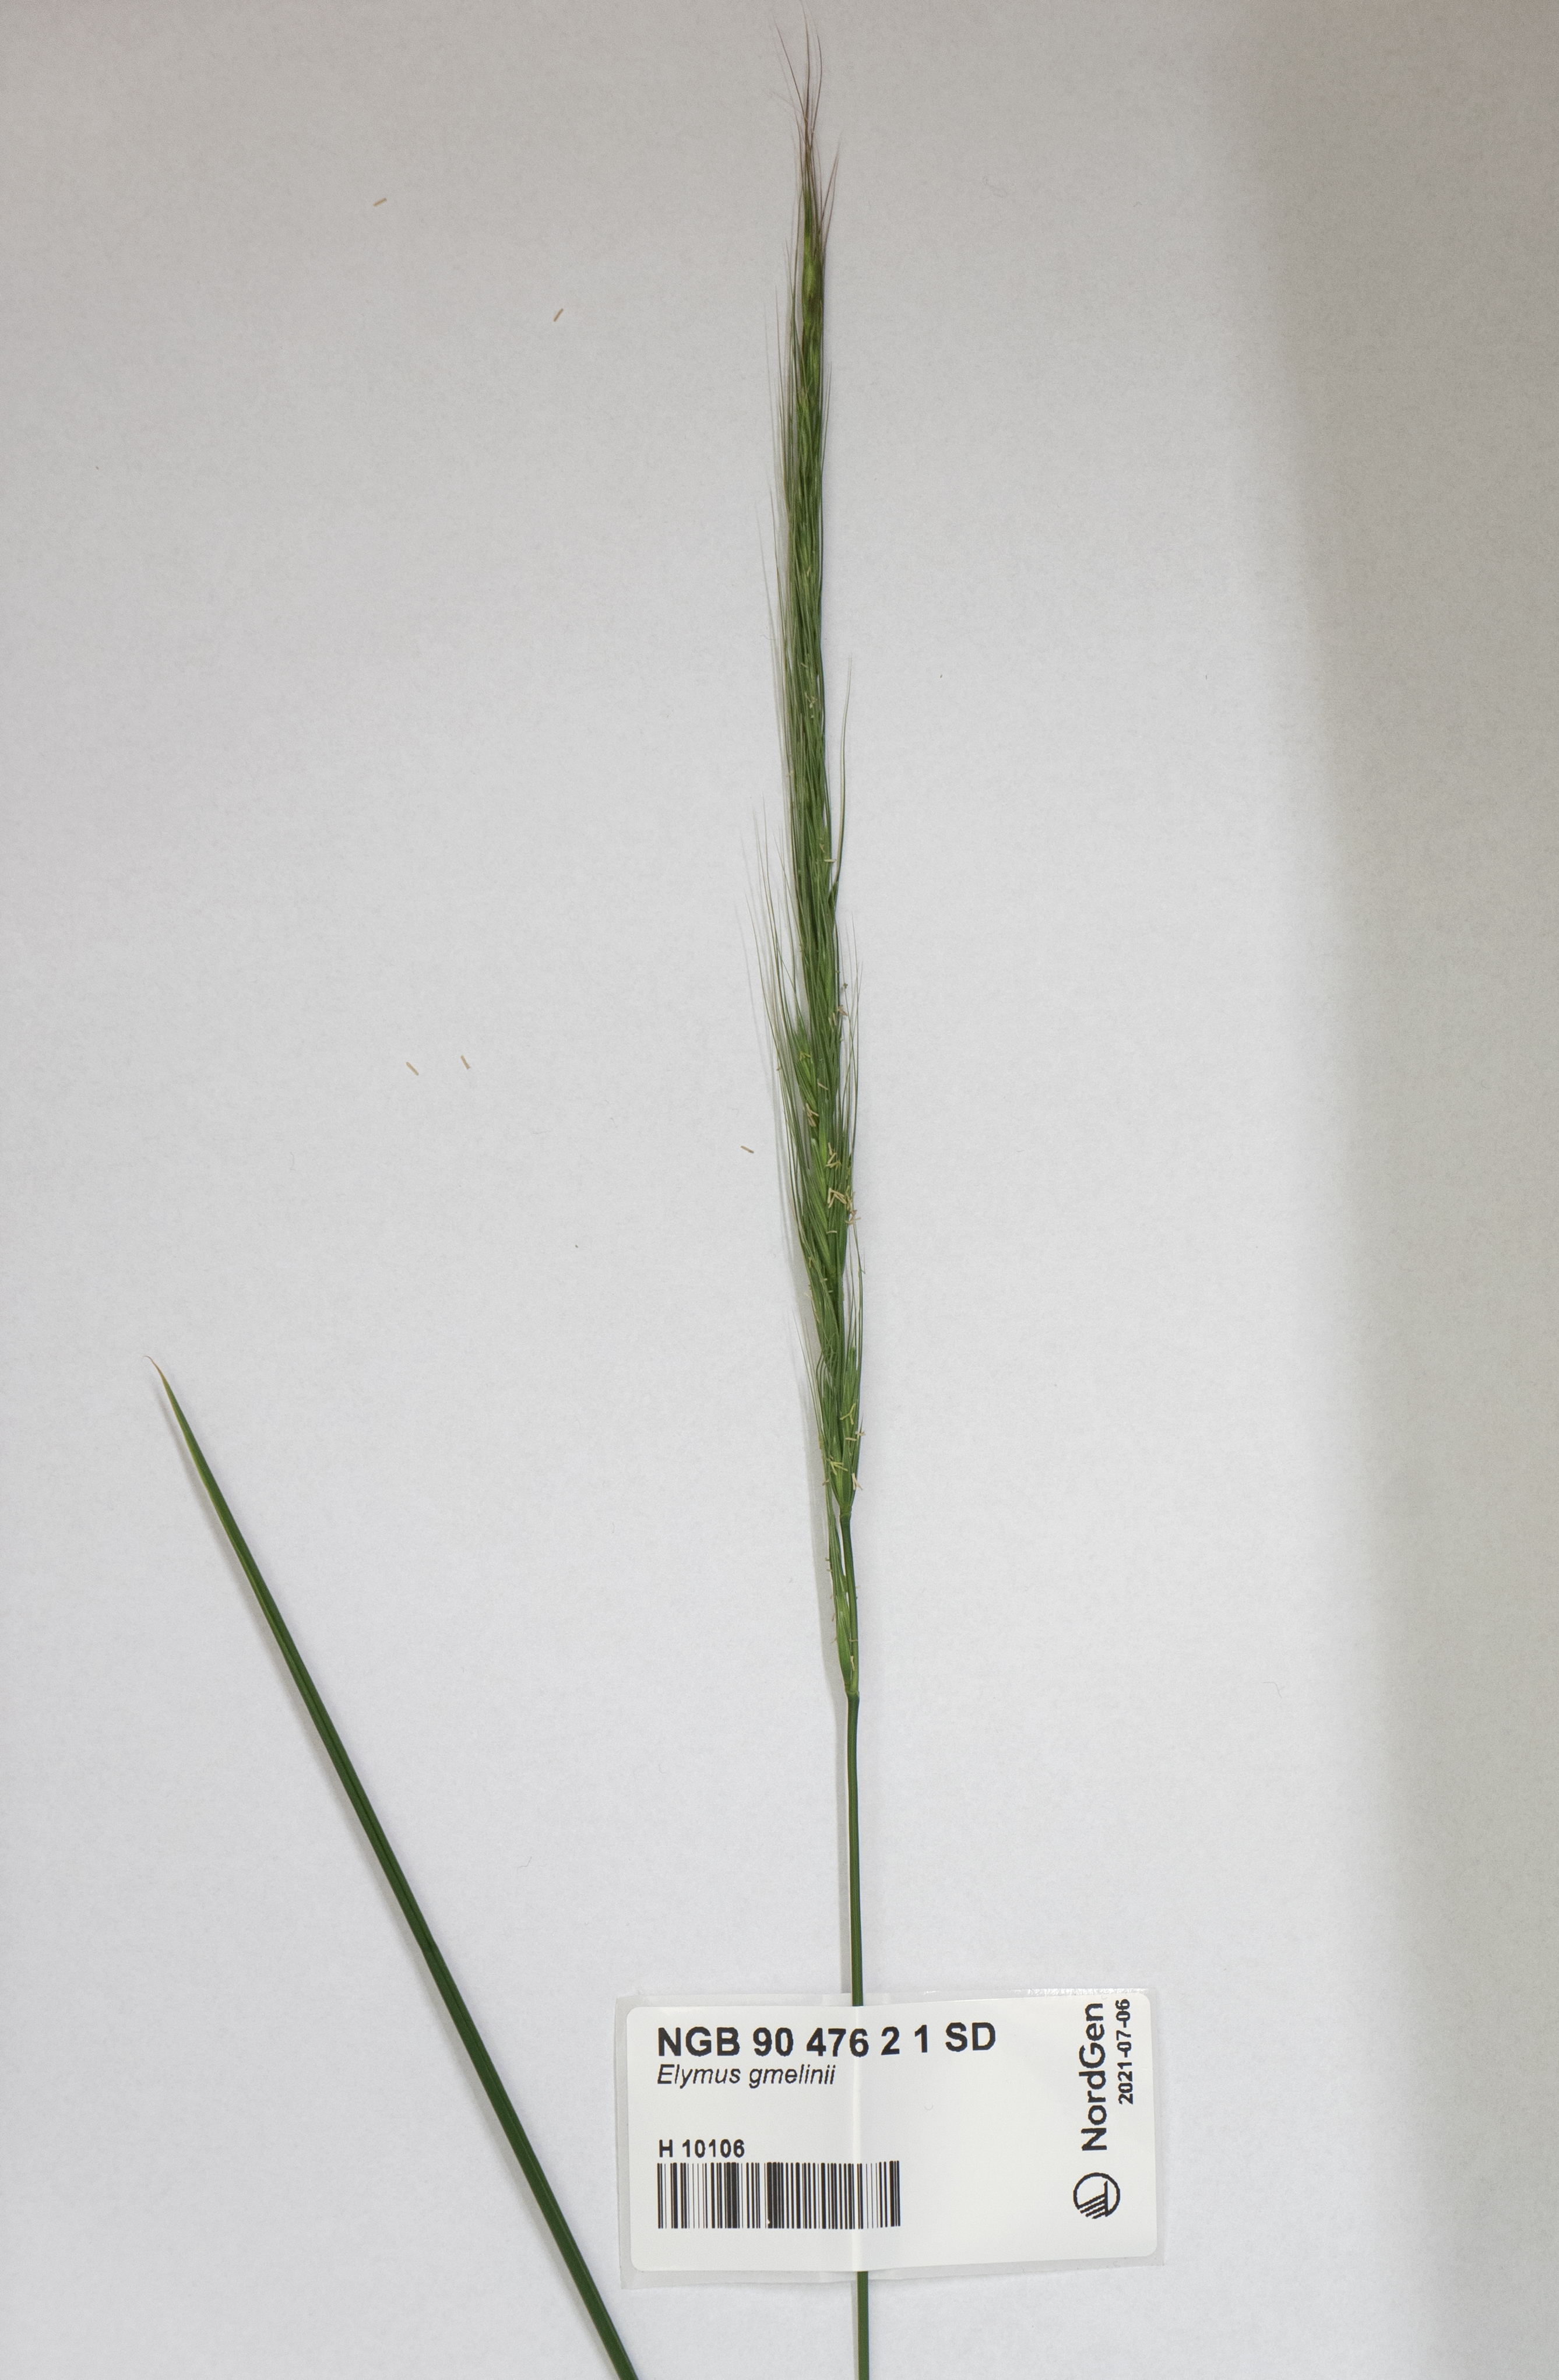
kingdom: Plantae
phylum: Tracheophyta
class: Liliopsida
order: Poales
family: Poaceae
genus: Elymus
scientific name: Elymus gmelinii
